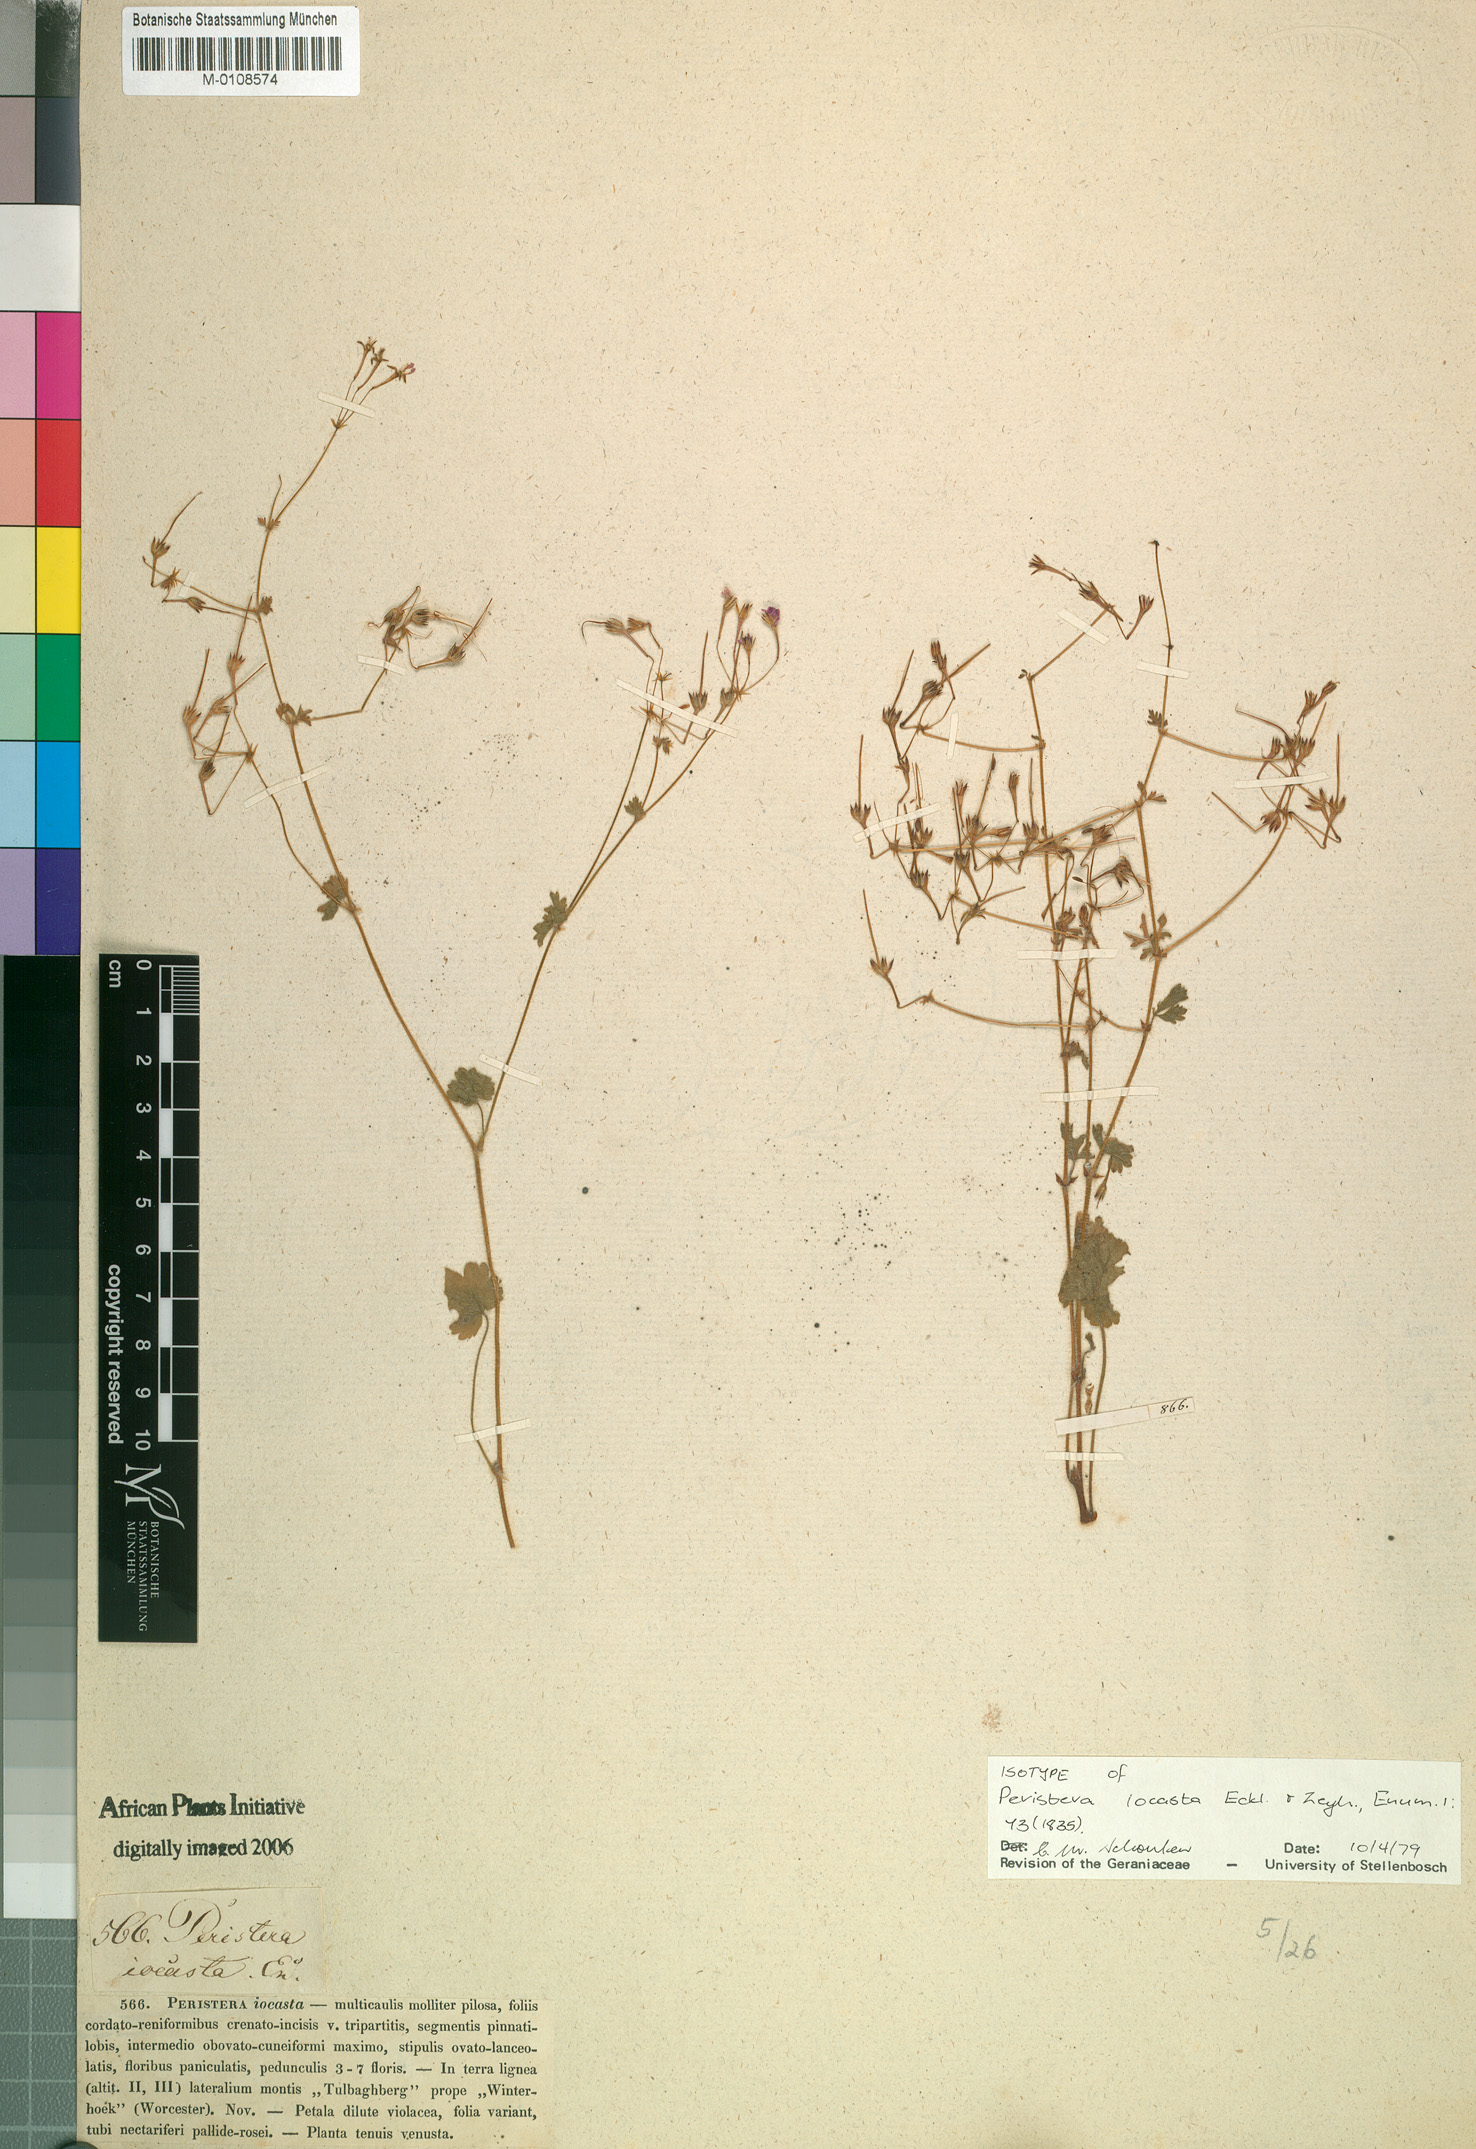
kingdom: Plantae
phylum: Tracheophyta
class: Magnoliopsida
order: Geraniales
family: Geraniaceae
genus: Pelargonium
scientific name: Pelargonium iocastum
